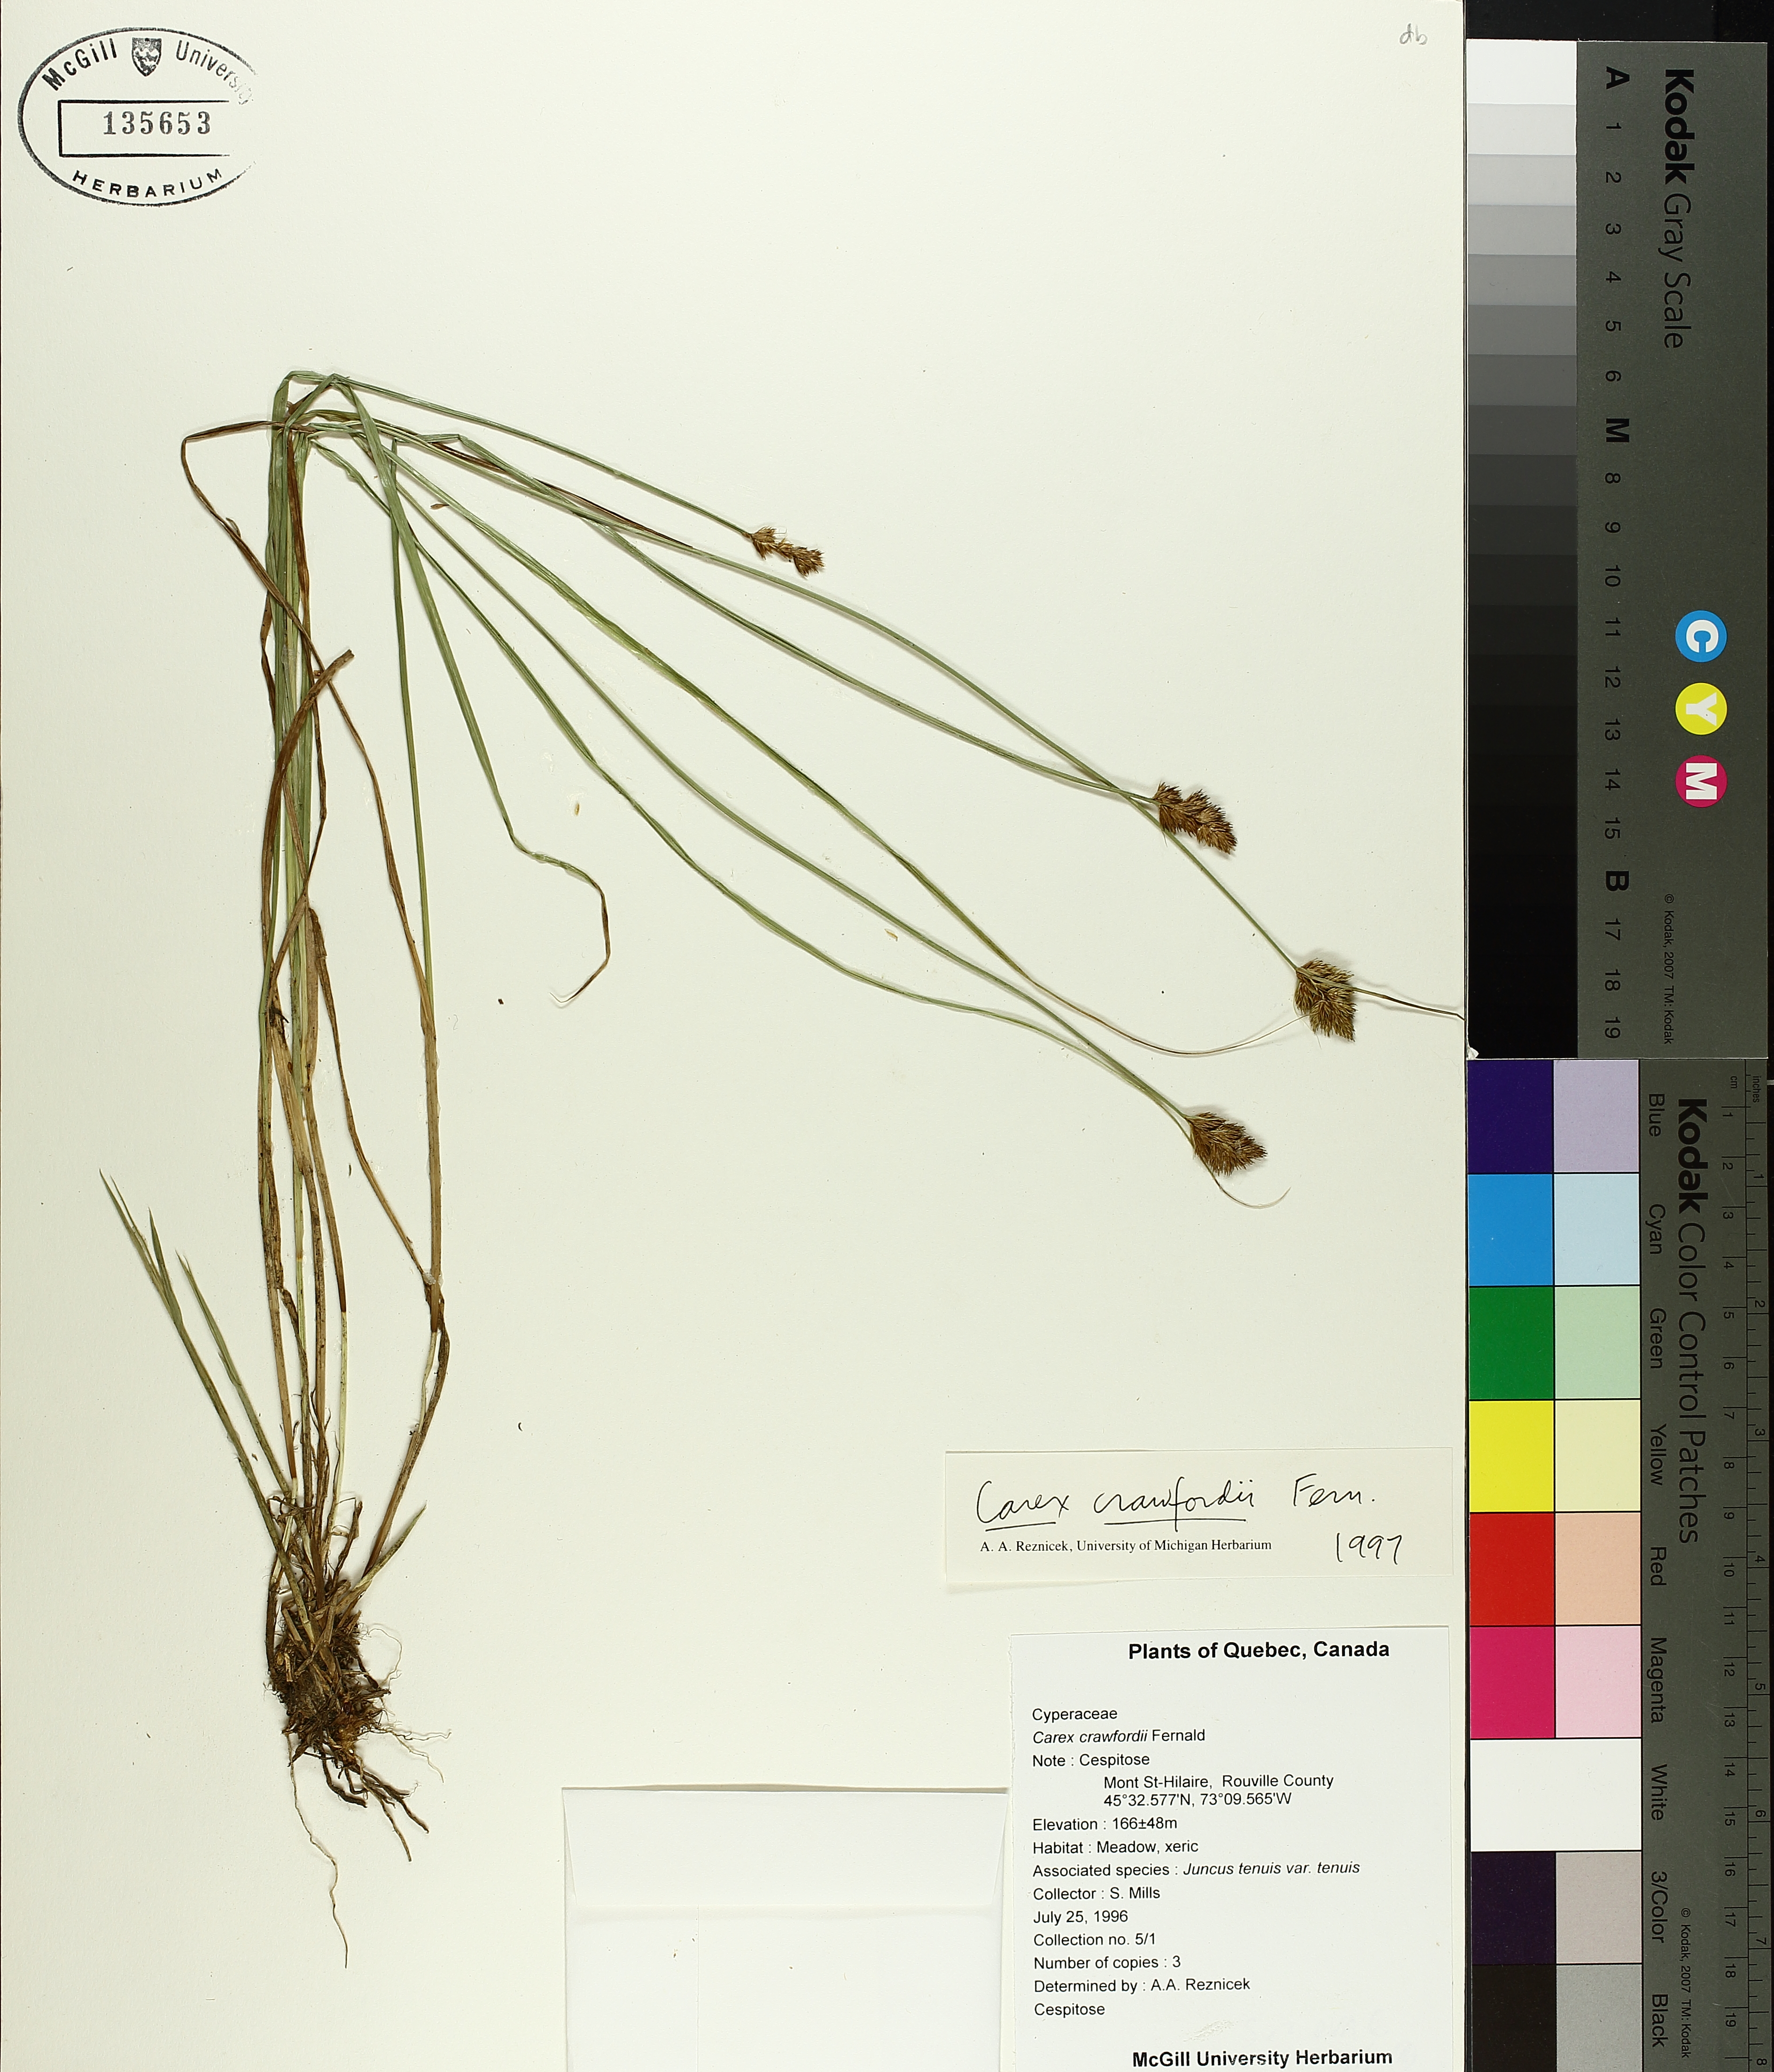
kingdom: Plantae
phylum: Tracheophyta
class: Liliopsida
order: Poales
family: Cyperaceae
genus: Carex
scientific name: Carex crawfordii
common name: Crawford's sedge
